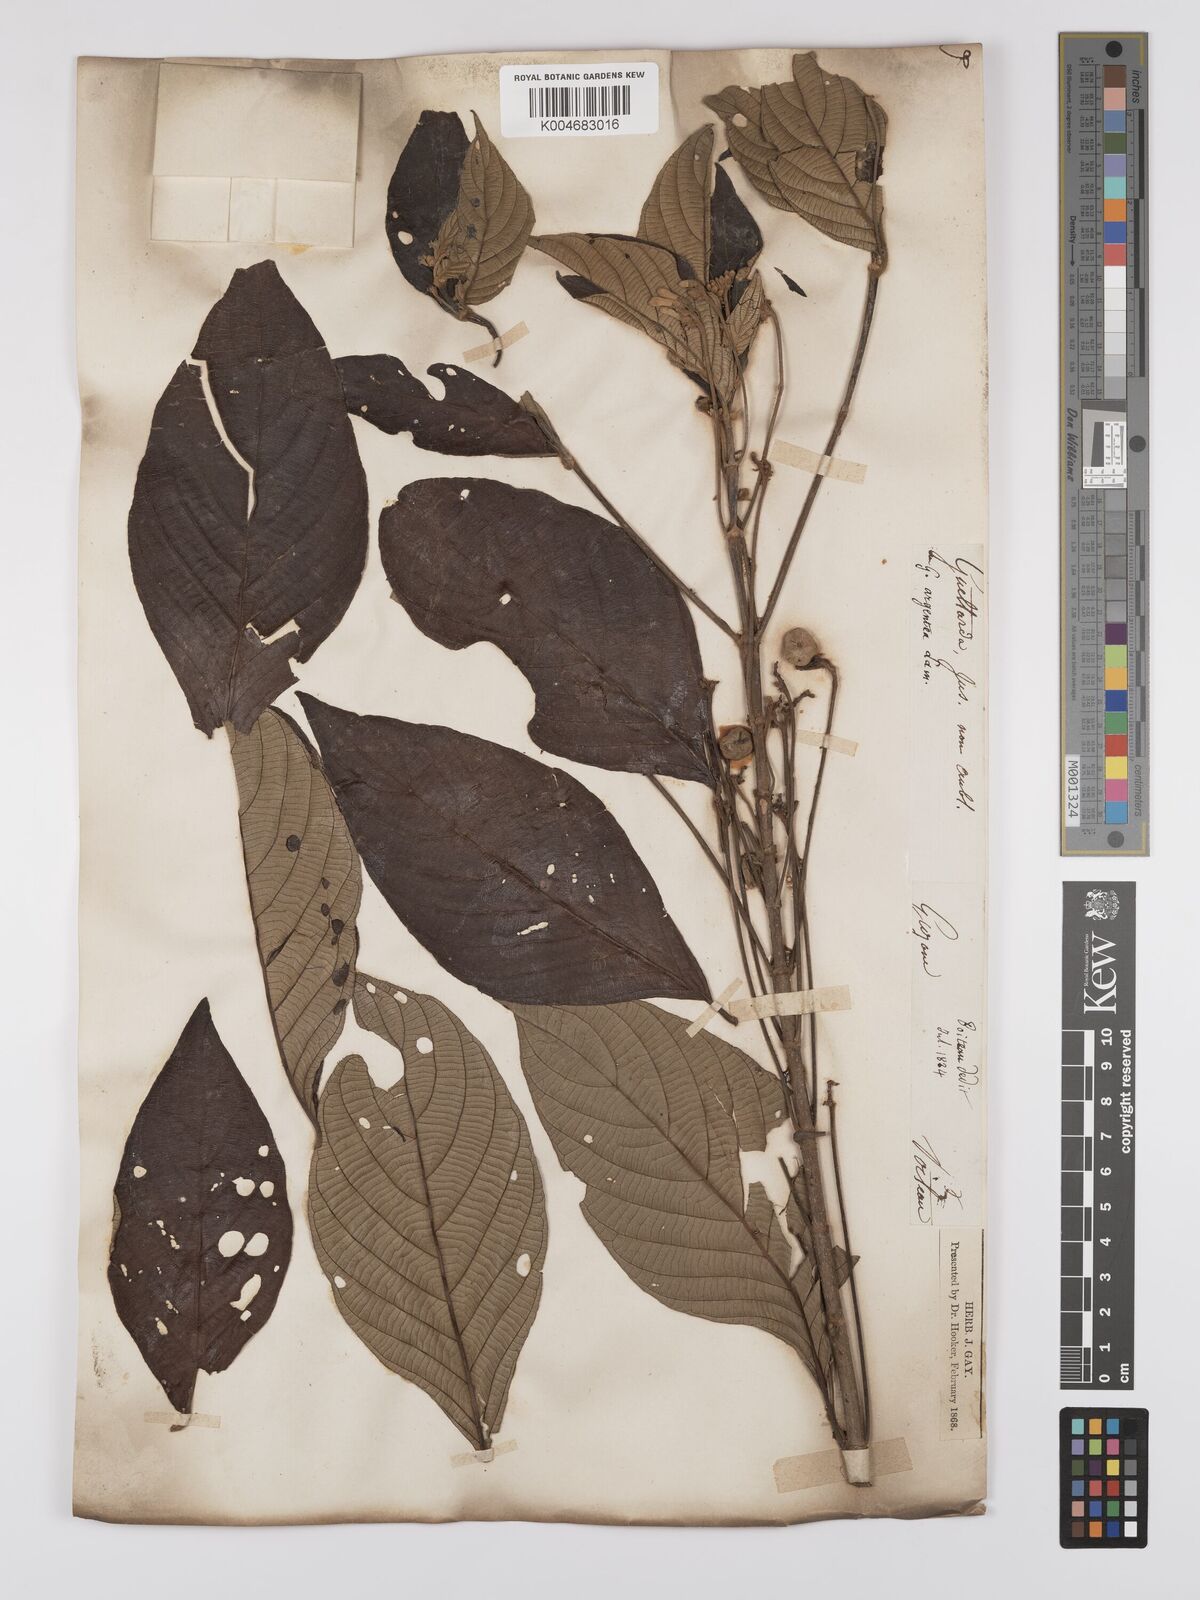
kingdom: Plantae
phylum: Tracheophyta
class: Magnoliopsida
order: Gentianales
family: Rubiaceae
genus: Guettarda
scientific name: Guettarda argentea
